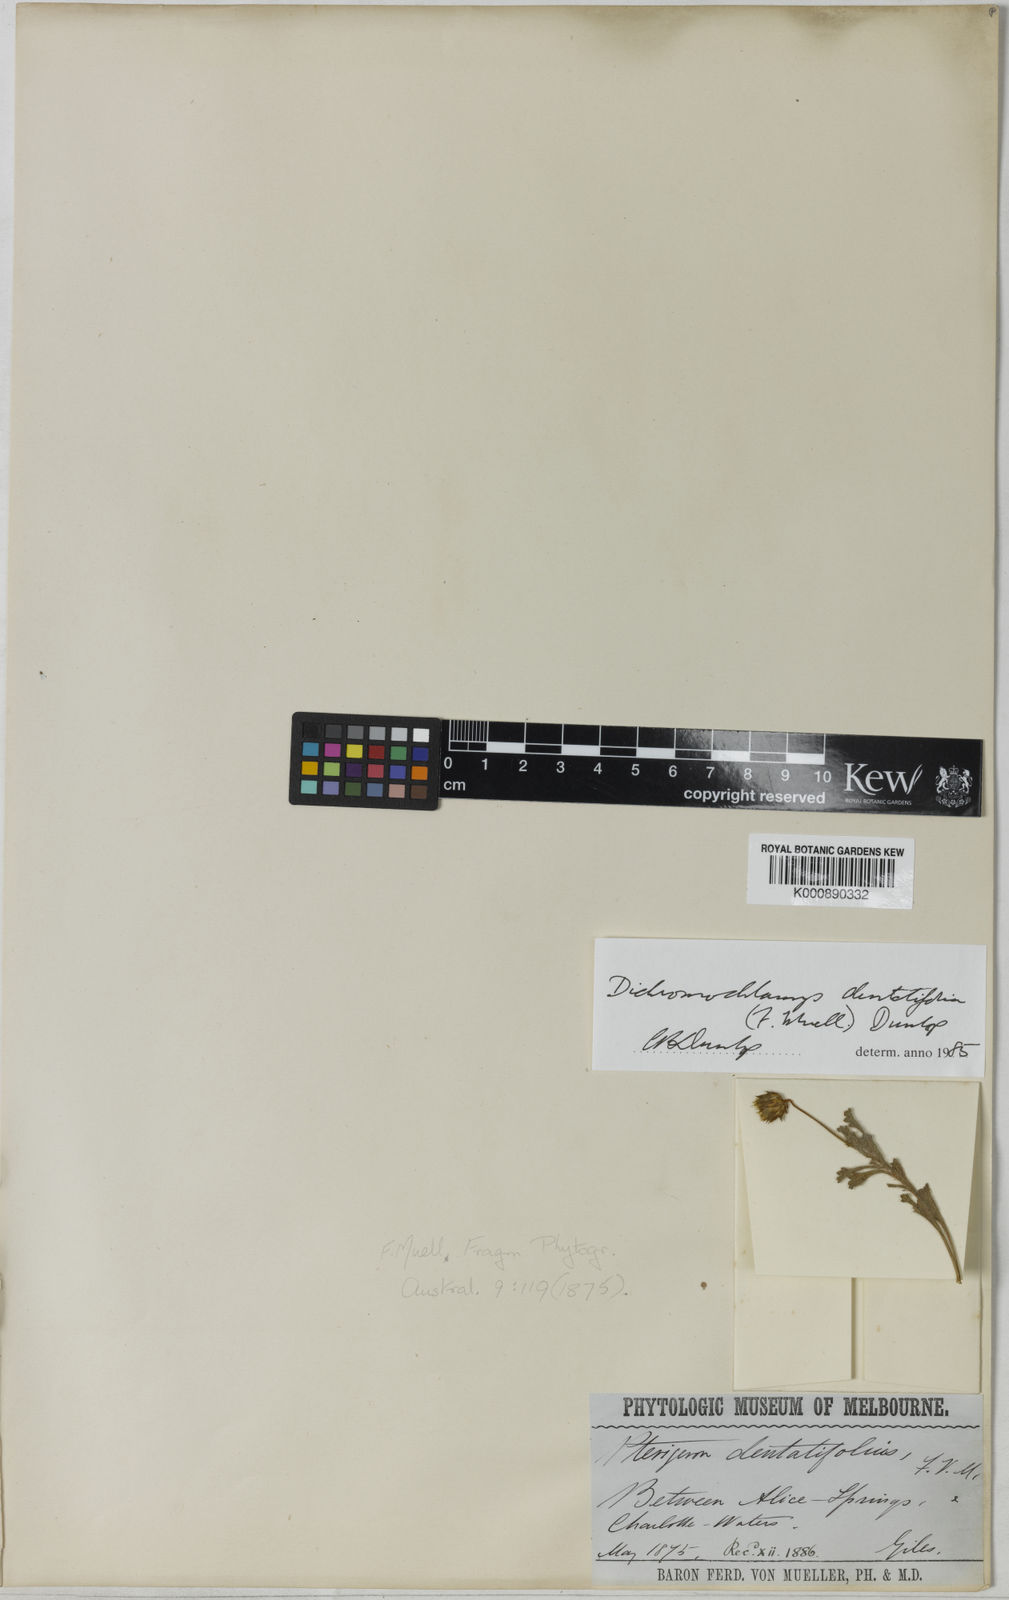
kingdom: Plantae
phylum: Tracheophyta
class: Magnoliopsida
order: Asterales
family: Asteraceae
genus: Dichromochlamys
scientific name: Dichromochlamys
